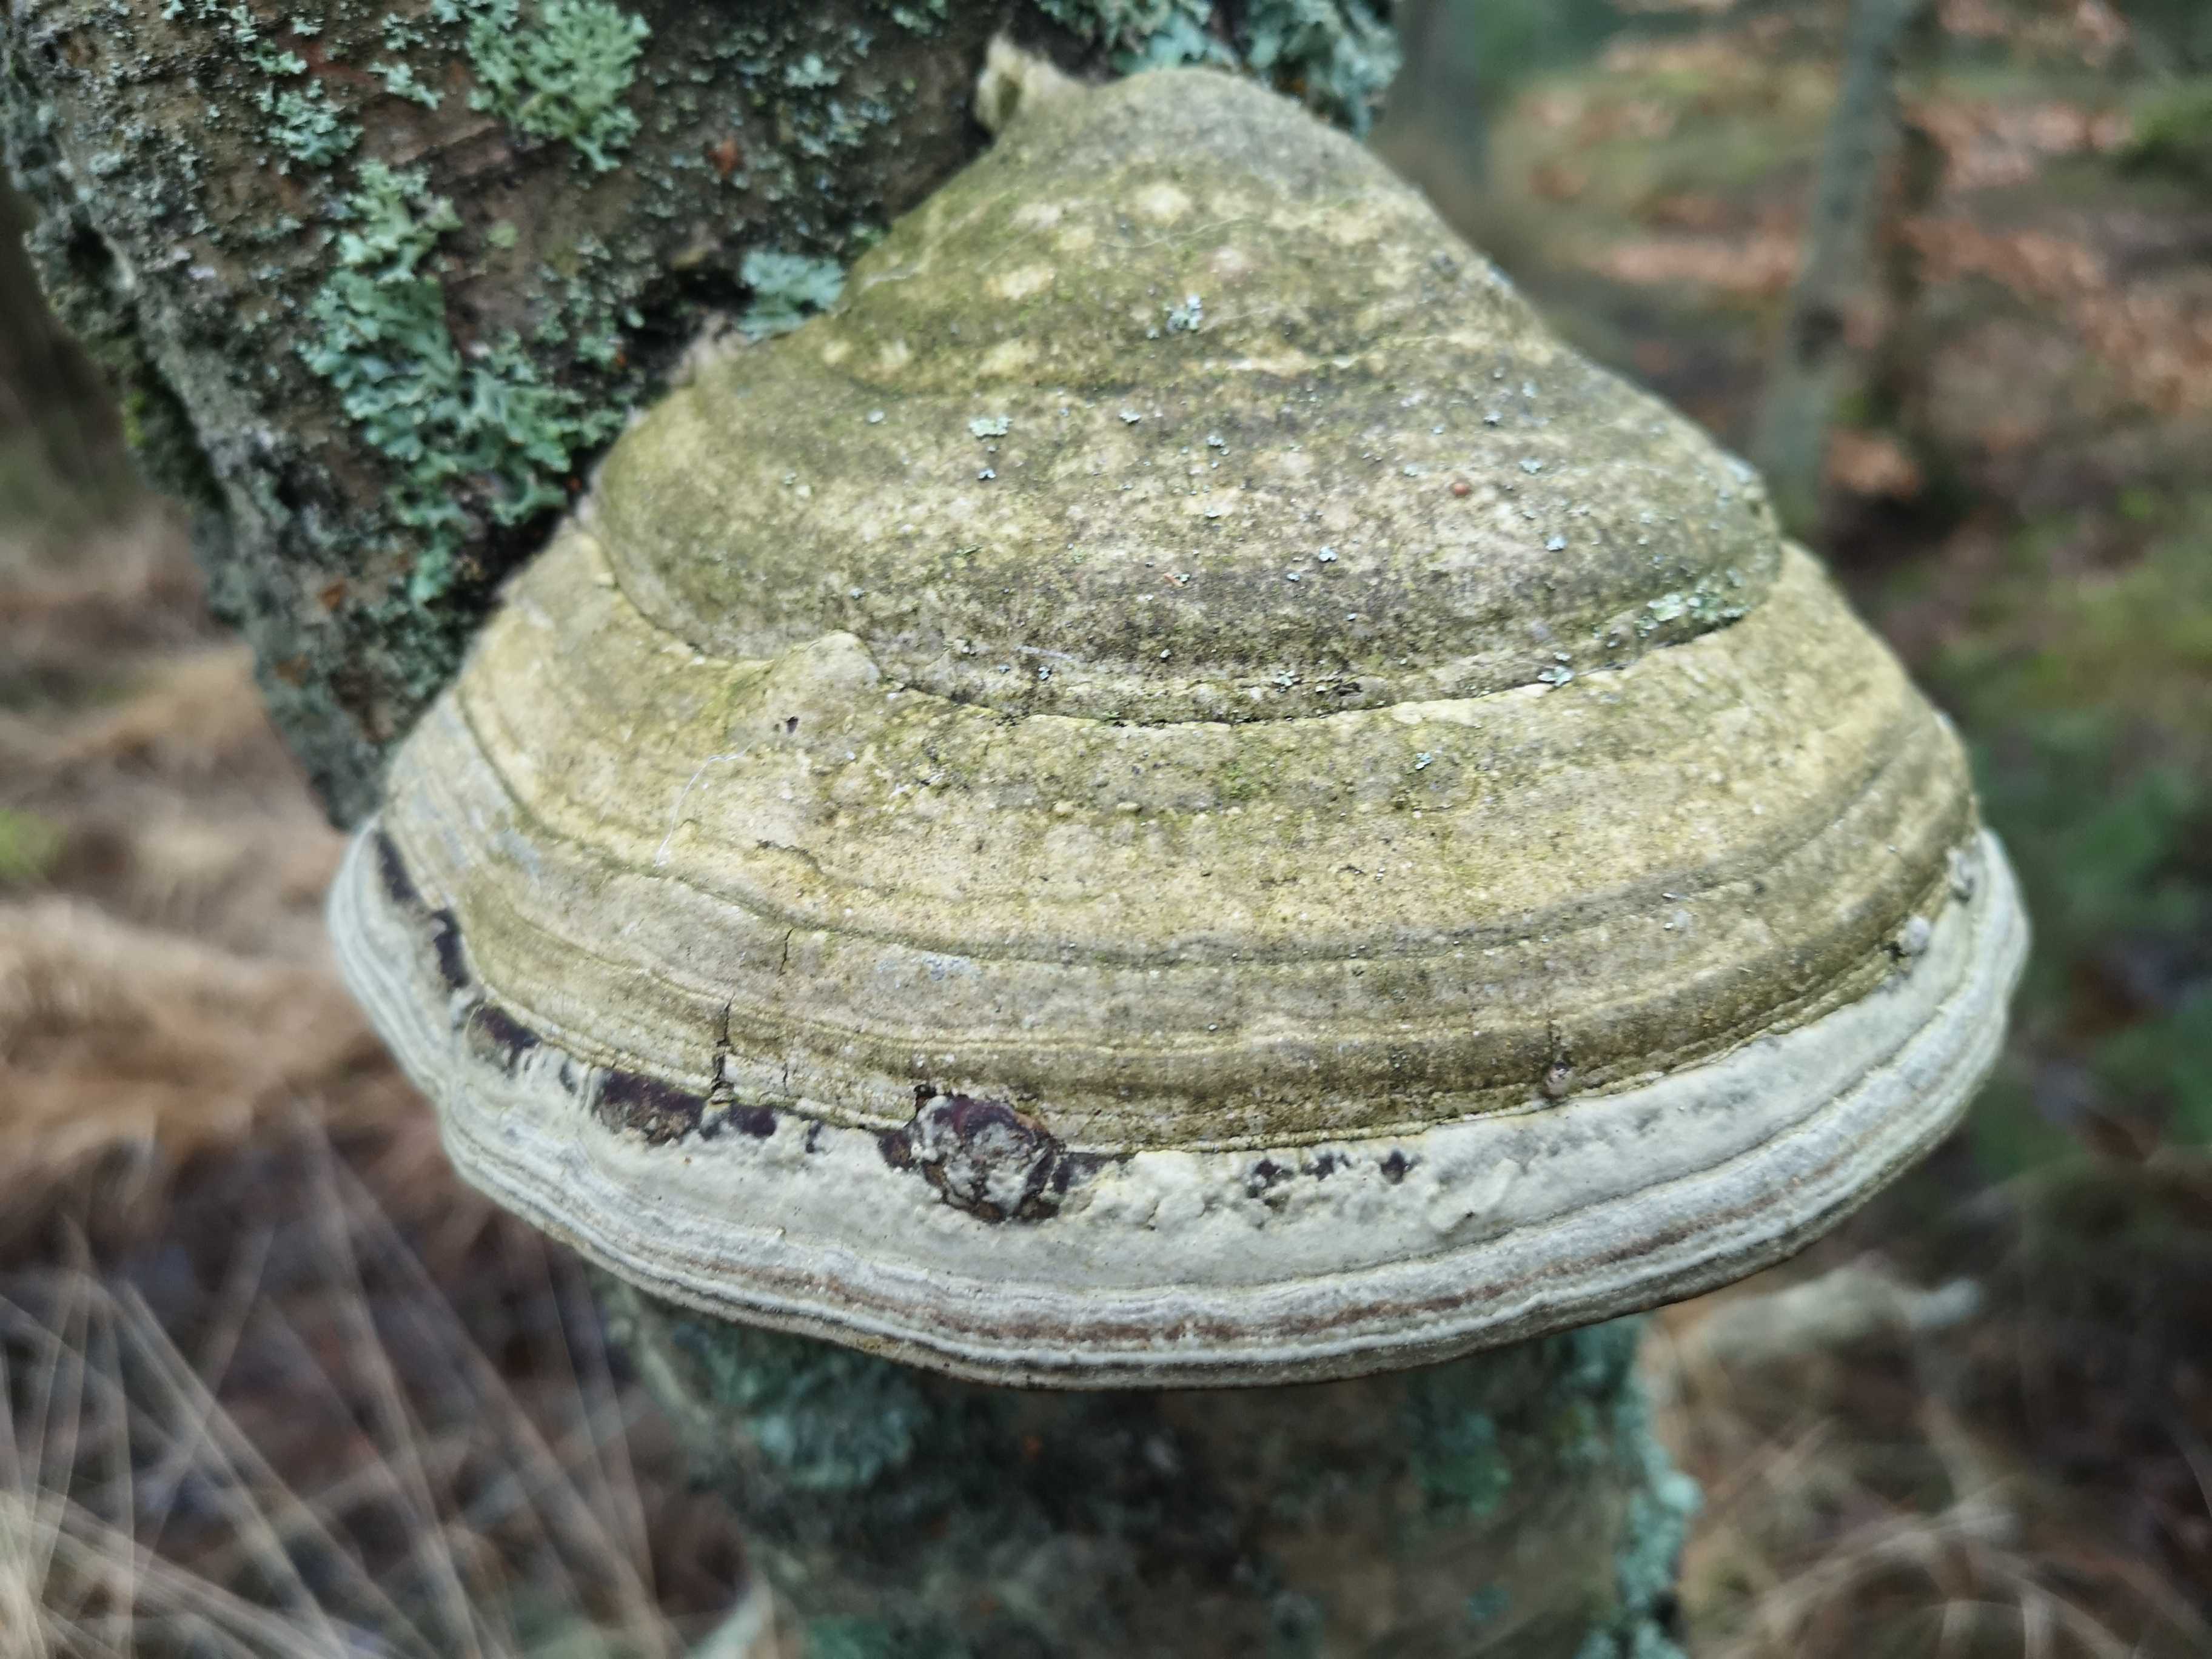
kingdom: Fungi
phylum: Basidiomycota
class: Agaricomycetes
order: Polyporales
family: Polyporaceae
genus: Fomes
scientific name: Fomes fomentarius
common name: tøndersvamp
